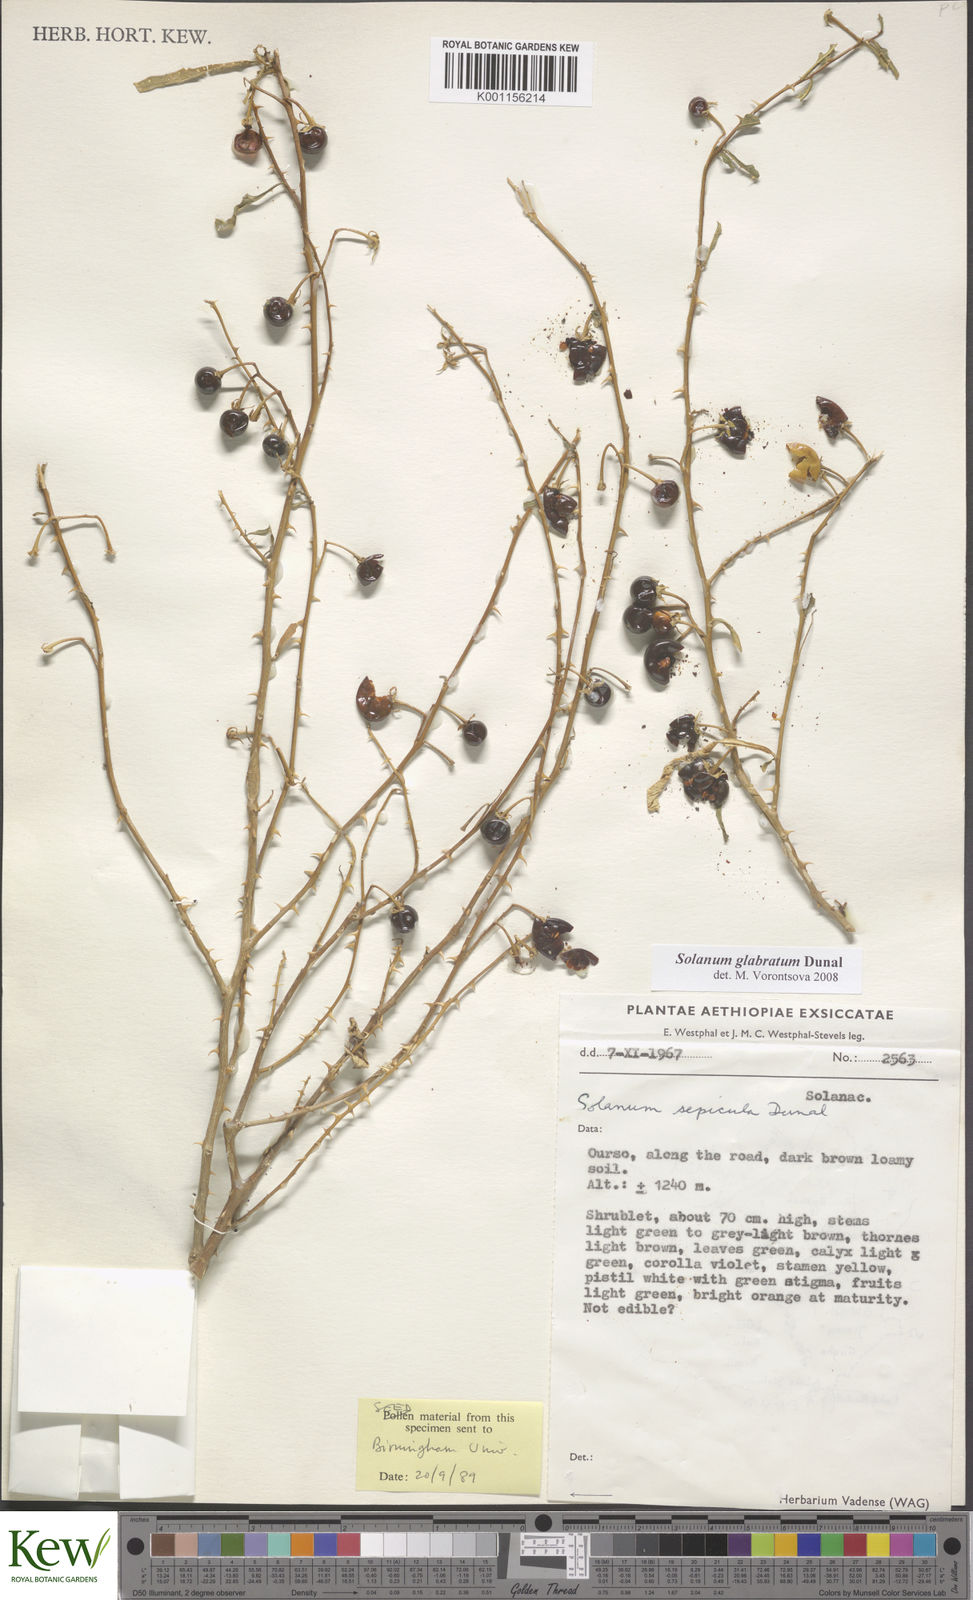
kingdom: Plantae
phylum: Tracheophyta
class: Magnoliopsida
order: Solanales
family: Solanaceae
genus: Solanum
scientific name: Solanum glabratum
